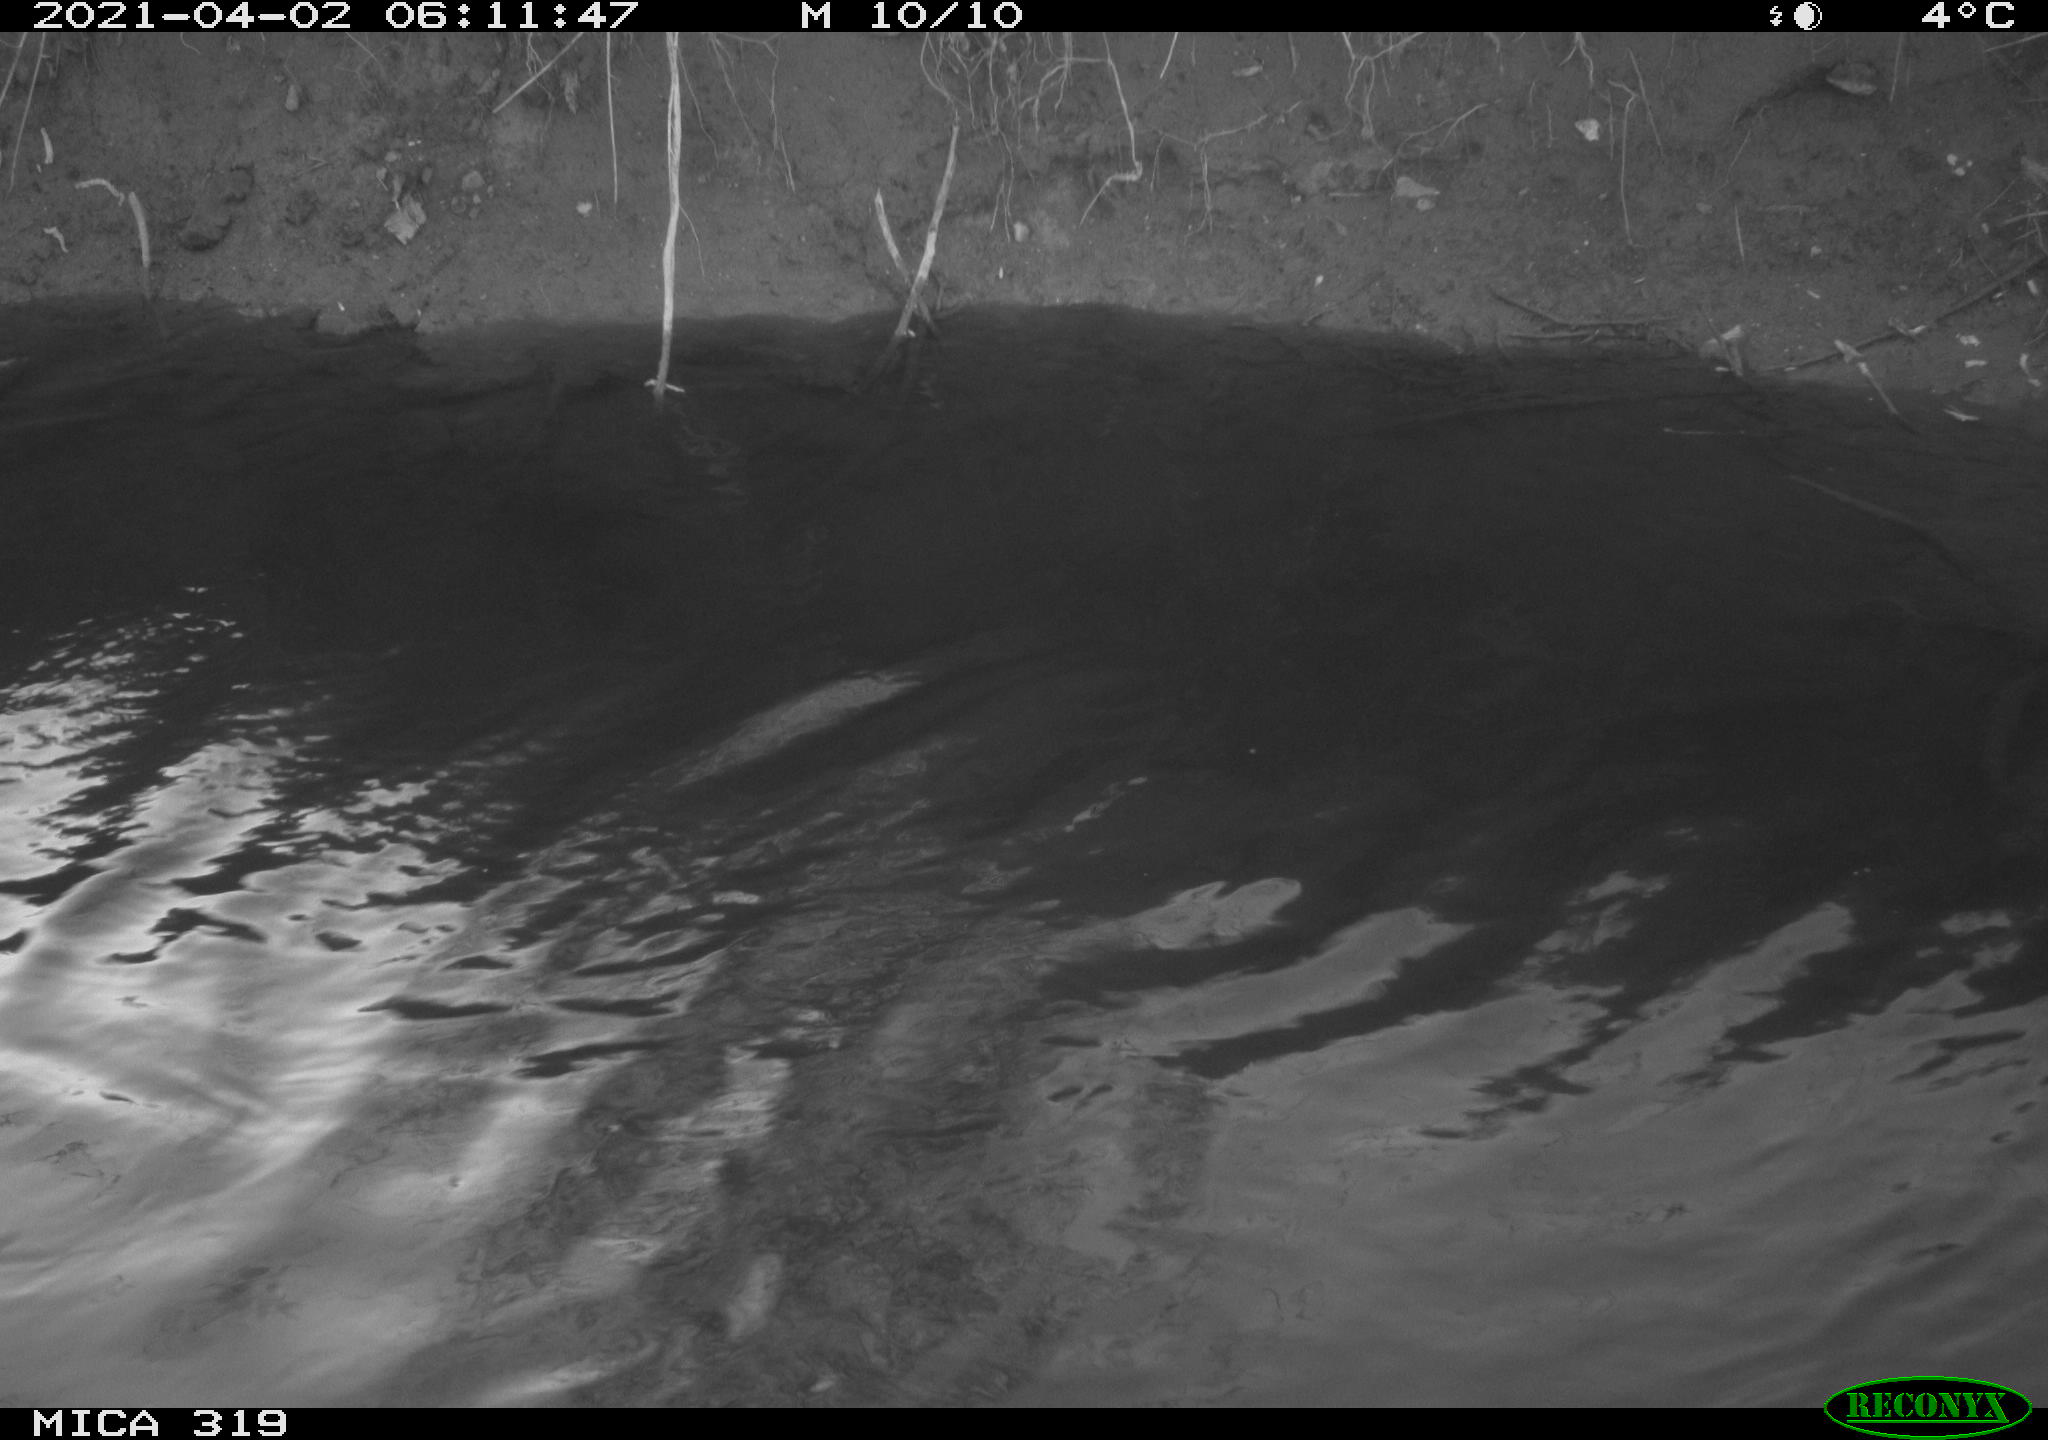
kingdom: Animalia
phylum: Chordata
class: Aves
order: Anseriformes
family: Anatidae
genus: Anas
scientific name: Anas platyrhynchos
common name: Mallard
